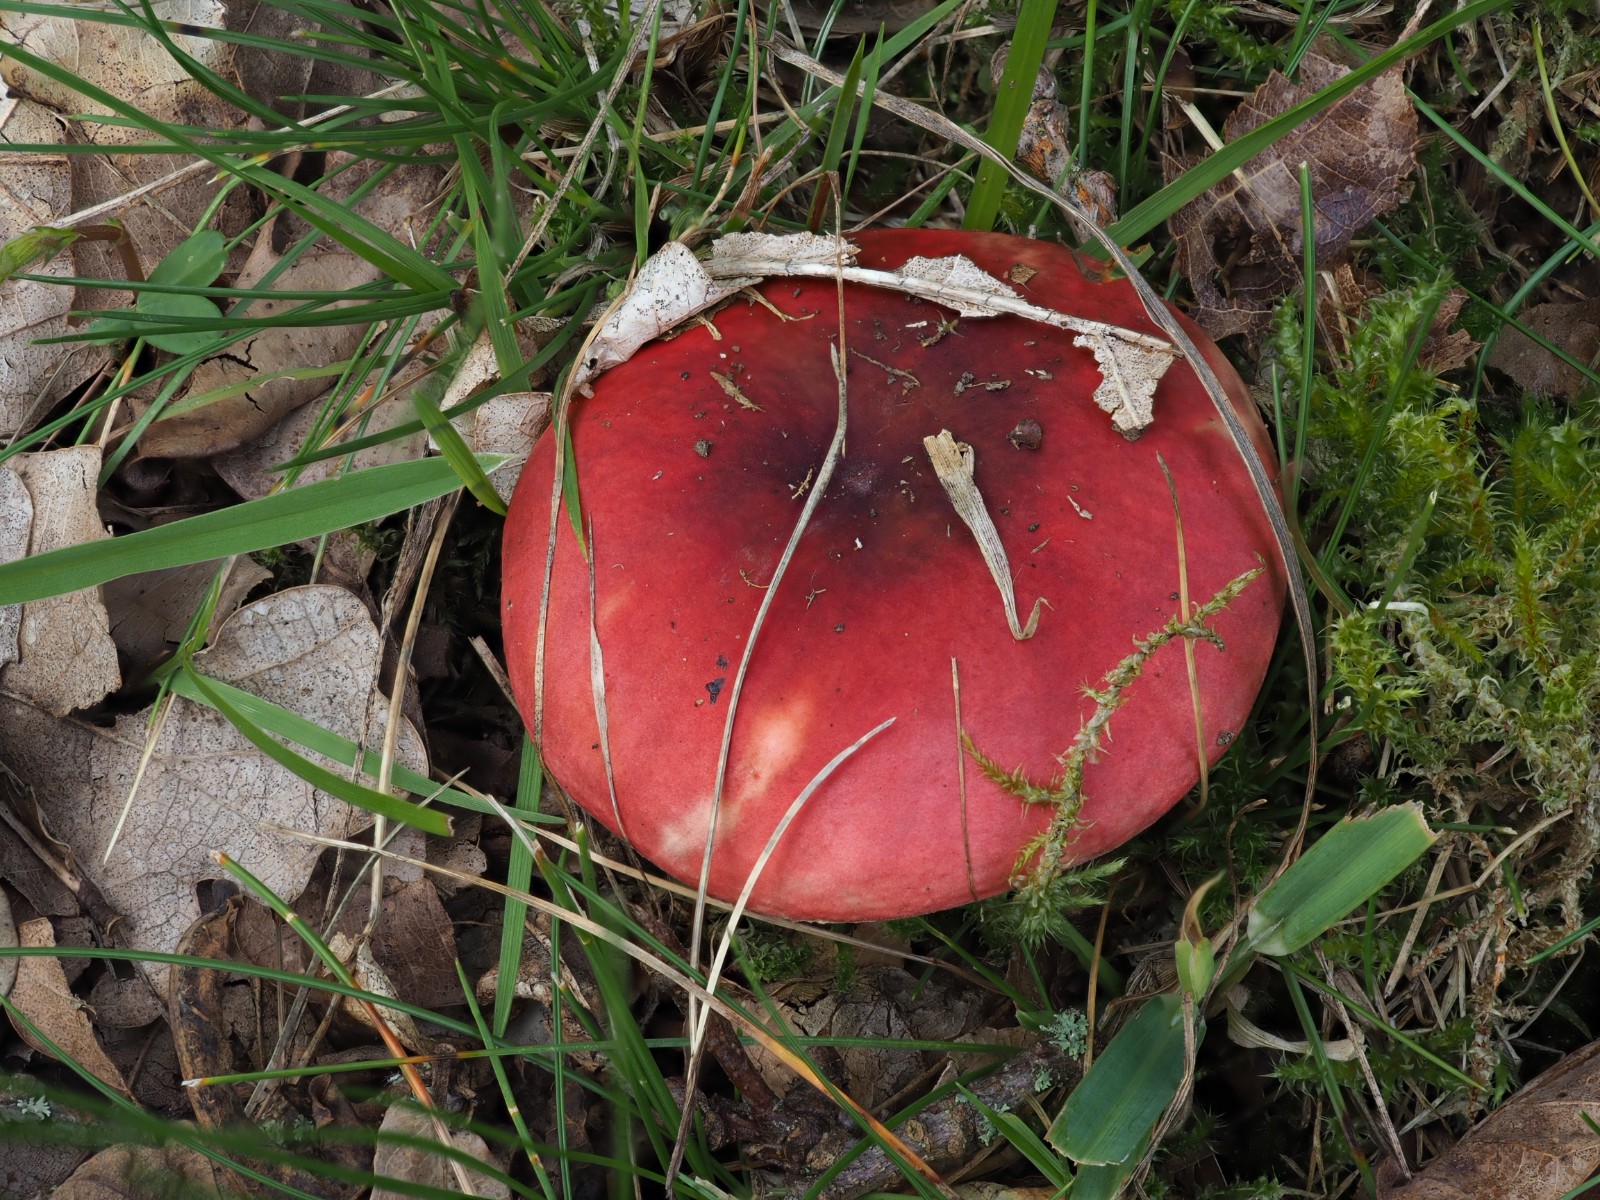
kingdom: Fungi
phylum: Basidiomycota
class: Agaricomycetes
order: Russulales
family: Russulaceae
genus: Russula
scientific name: Russula
